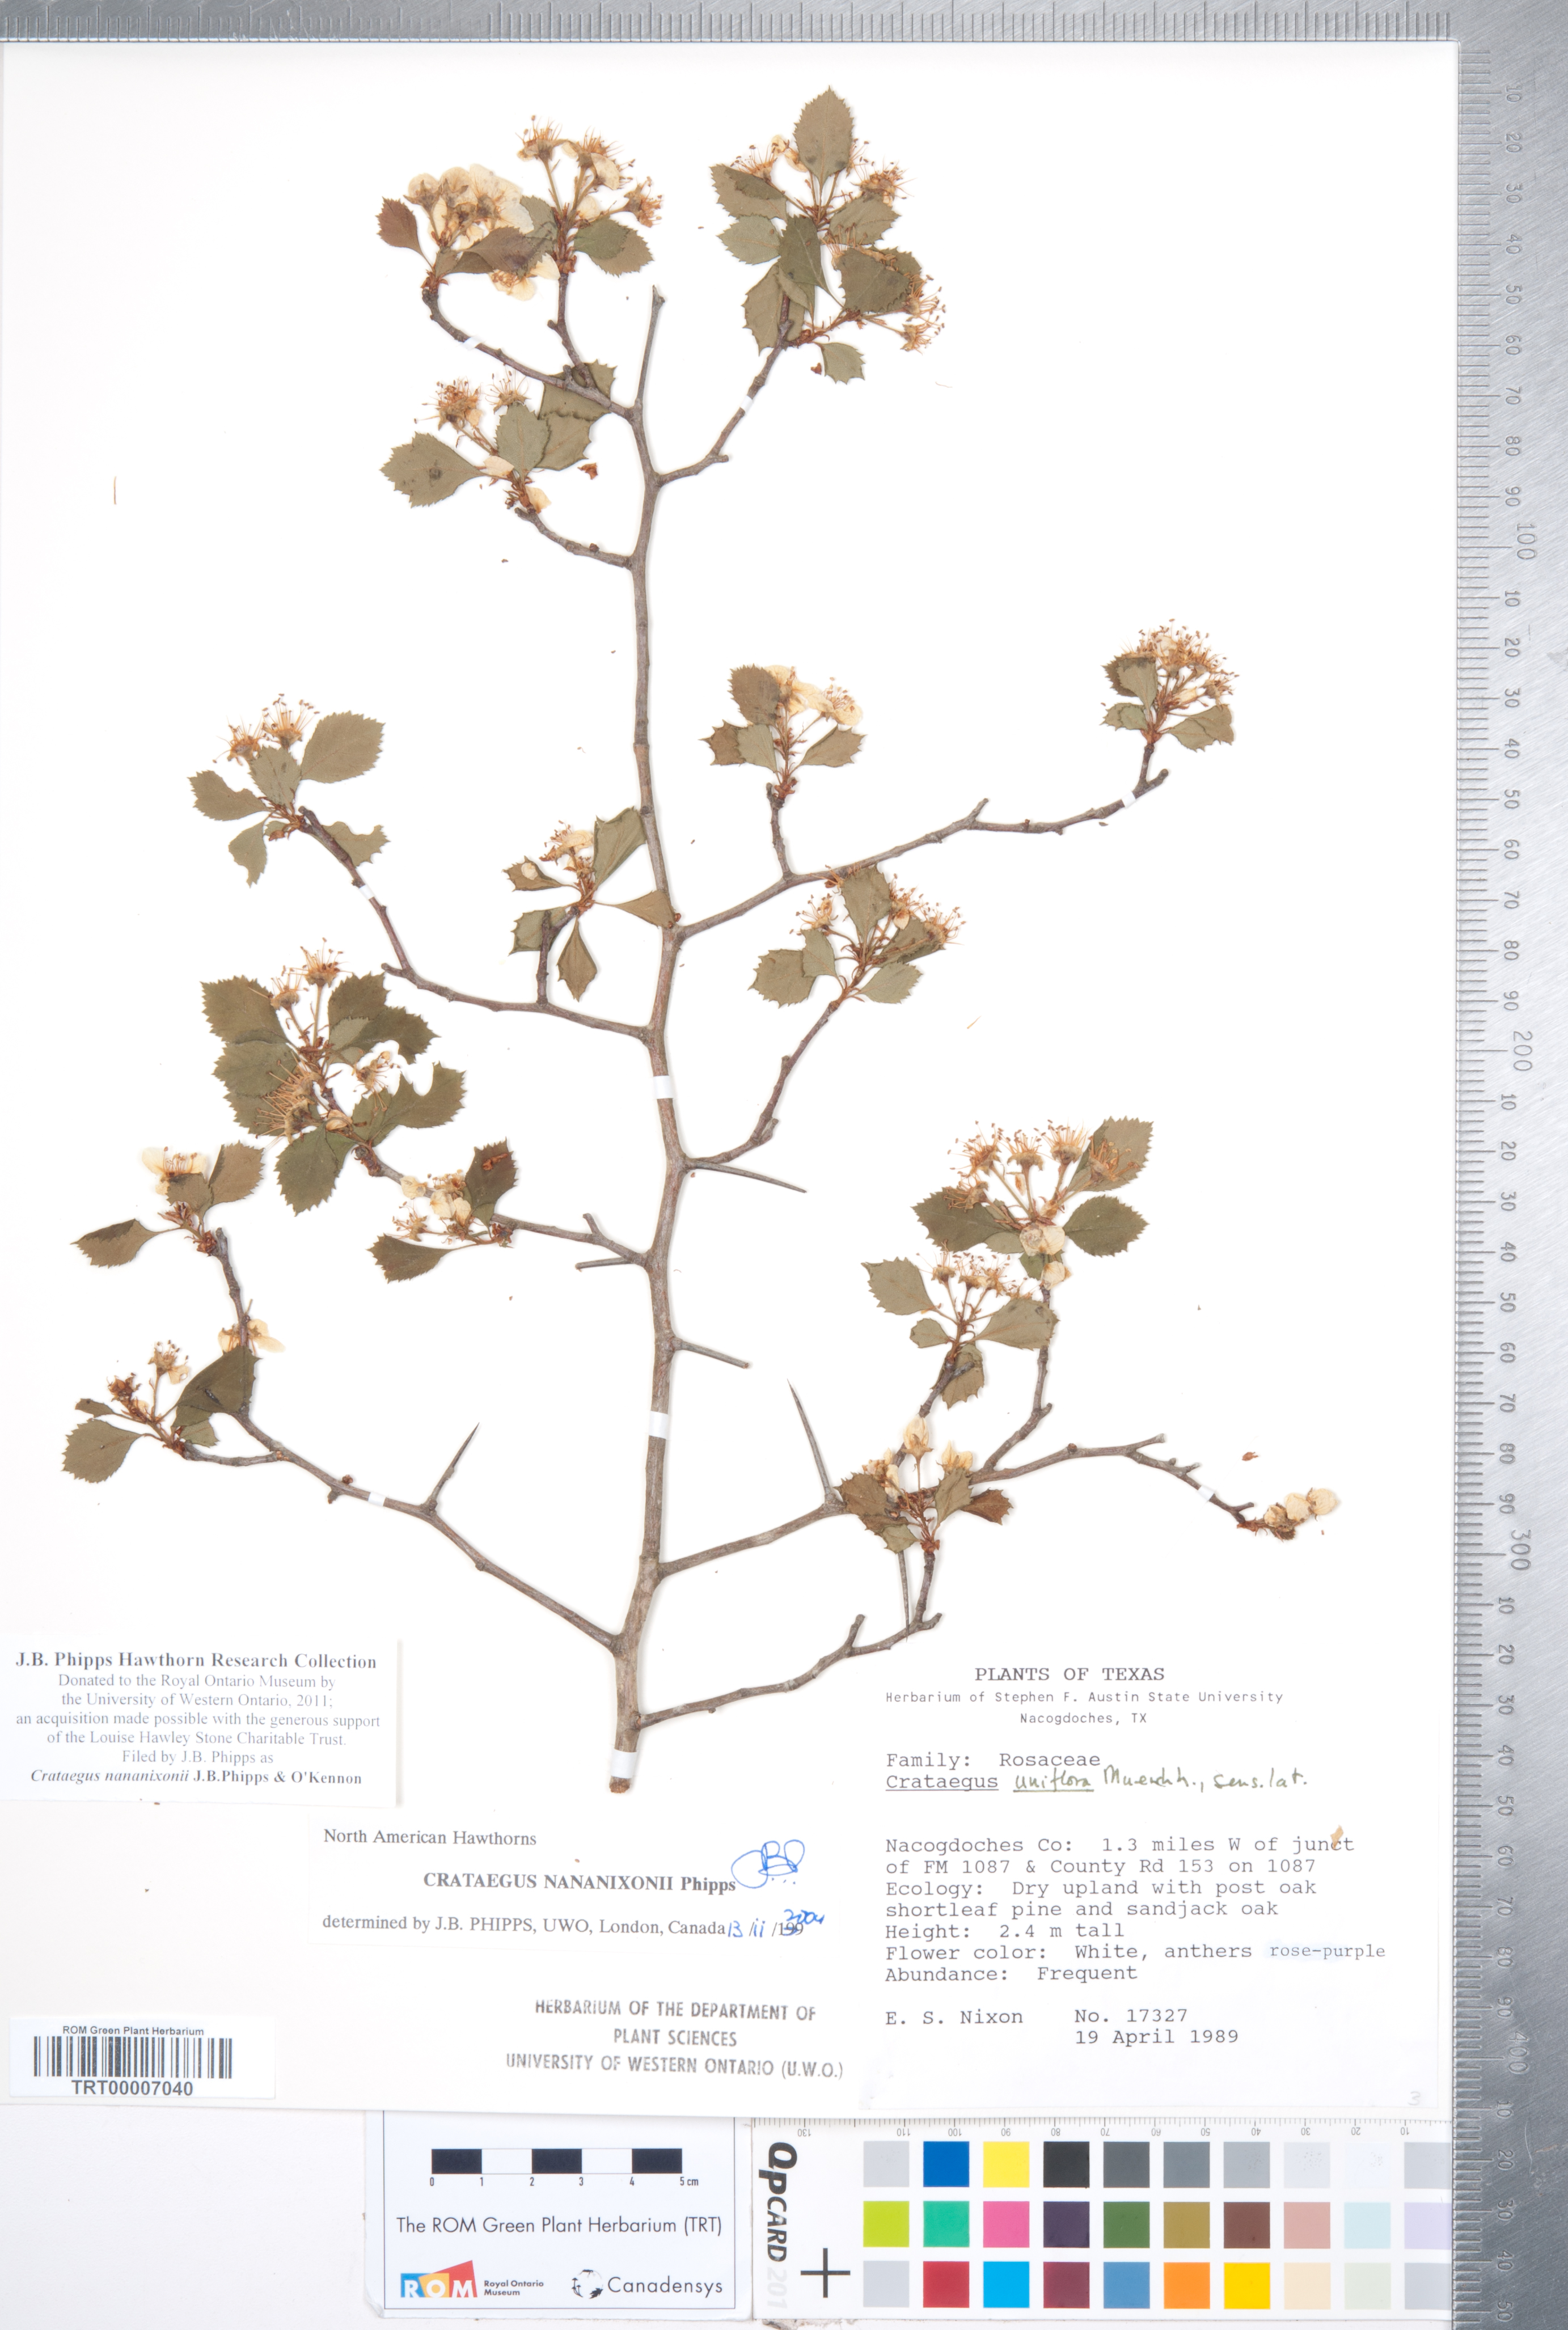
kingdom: Plantae
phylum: Tracheophyta
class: Magnoliopsida
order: Rosales
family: Rosaceae
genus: Crataegus
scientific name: Crataegus nananixonii
